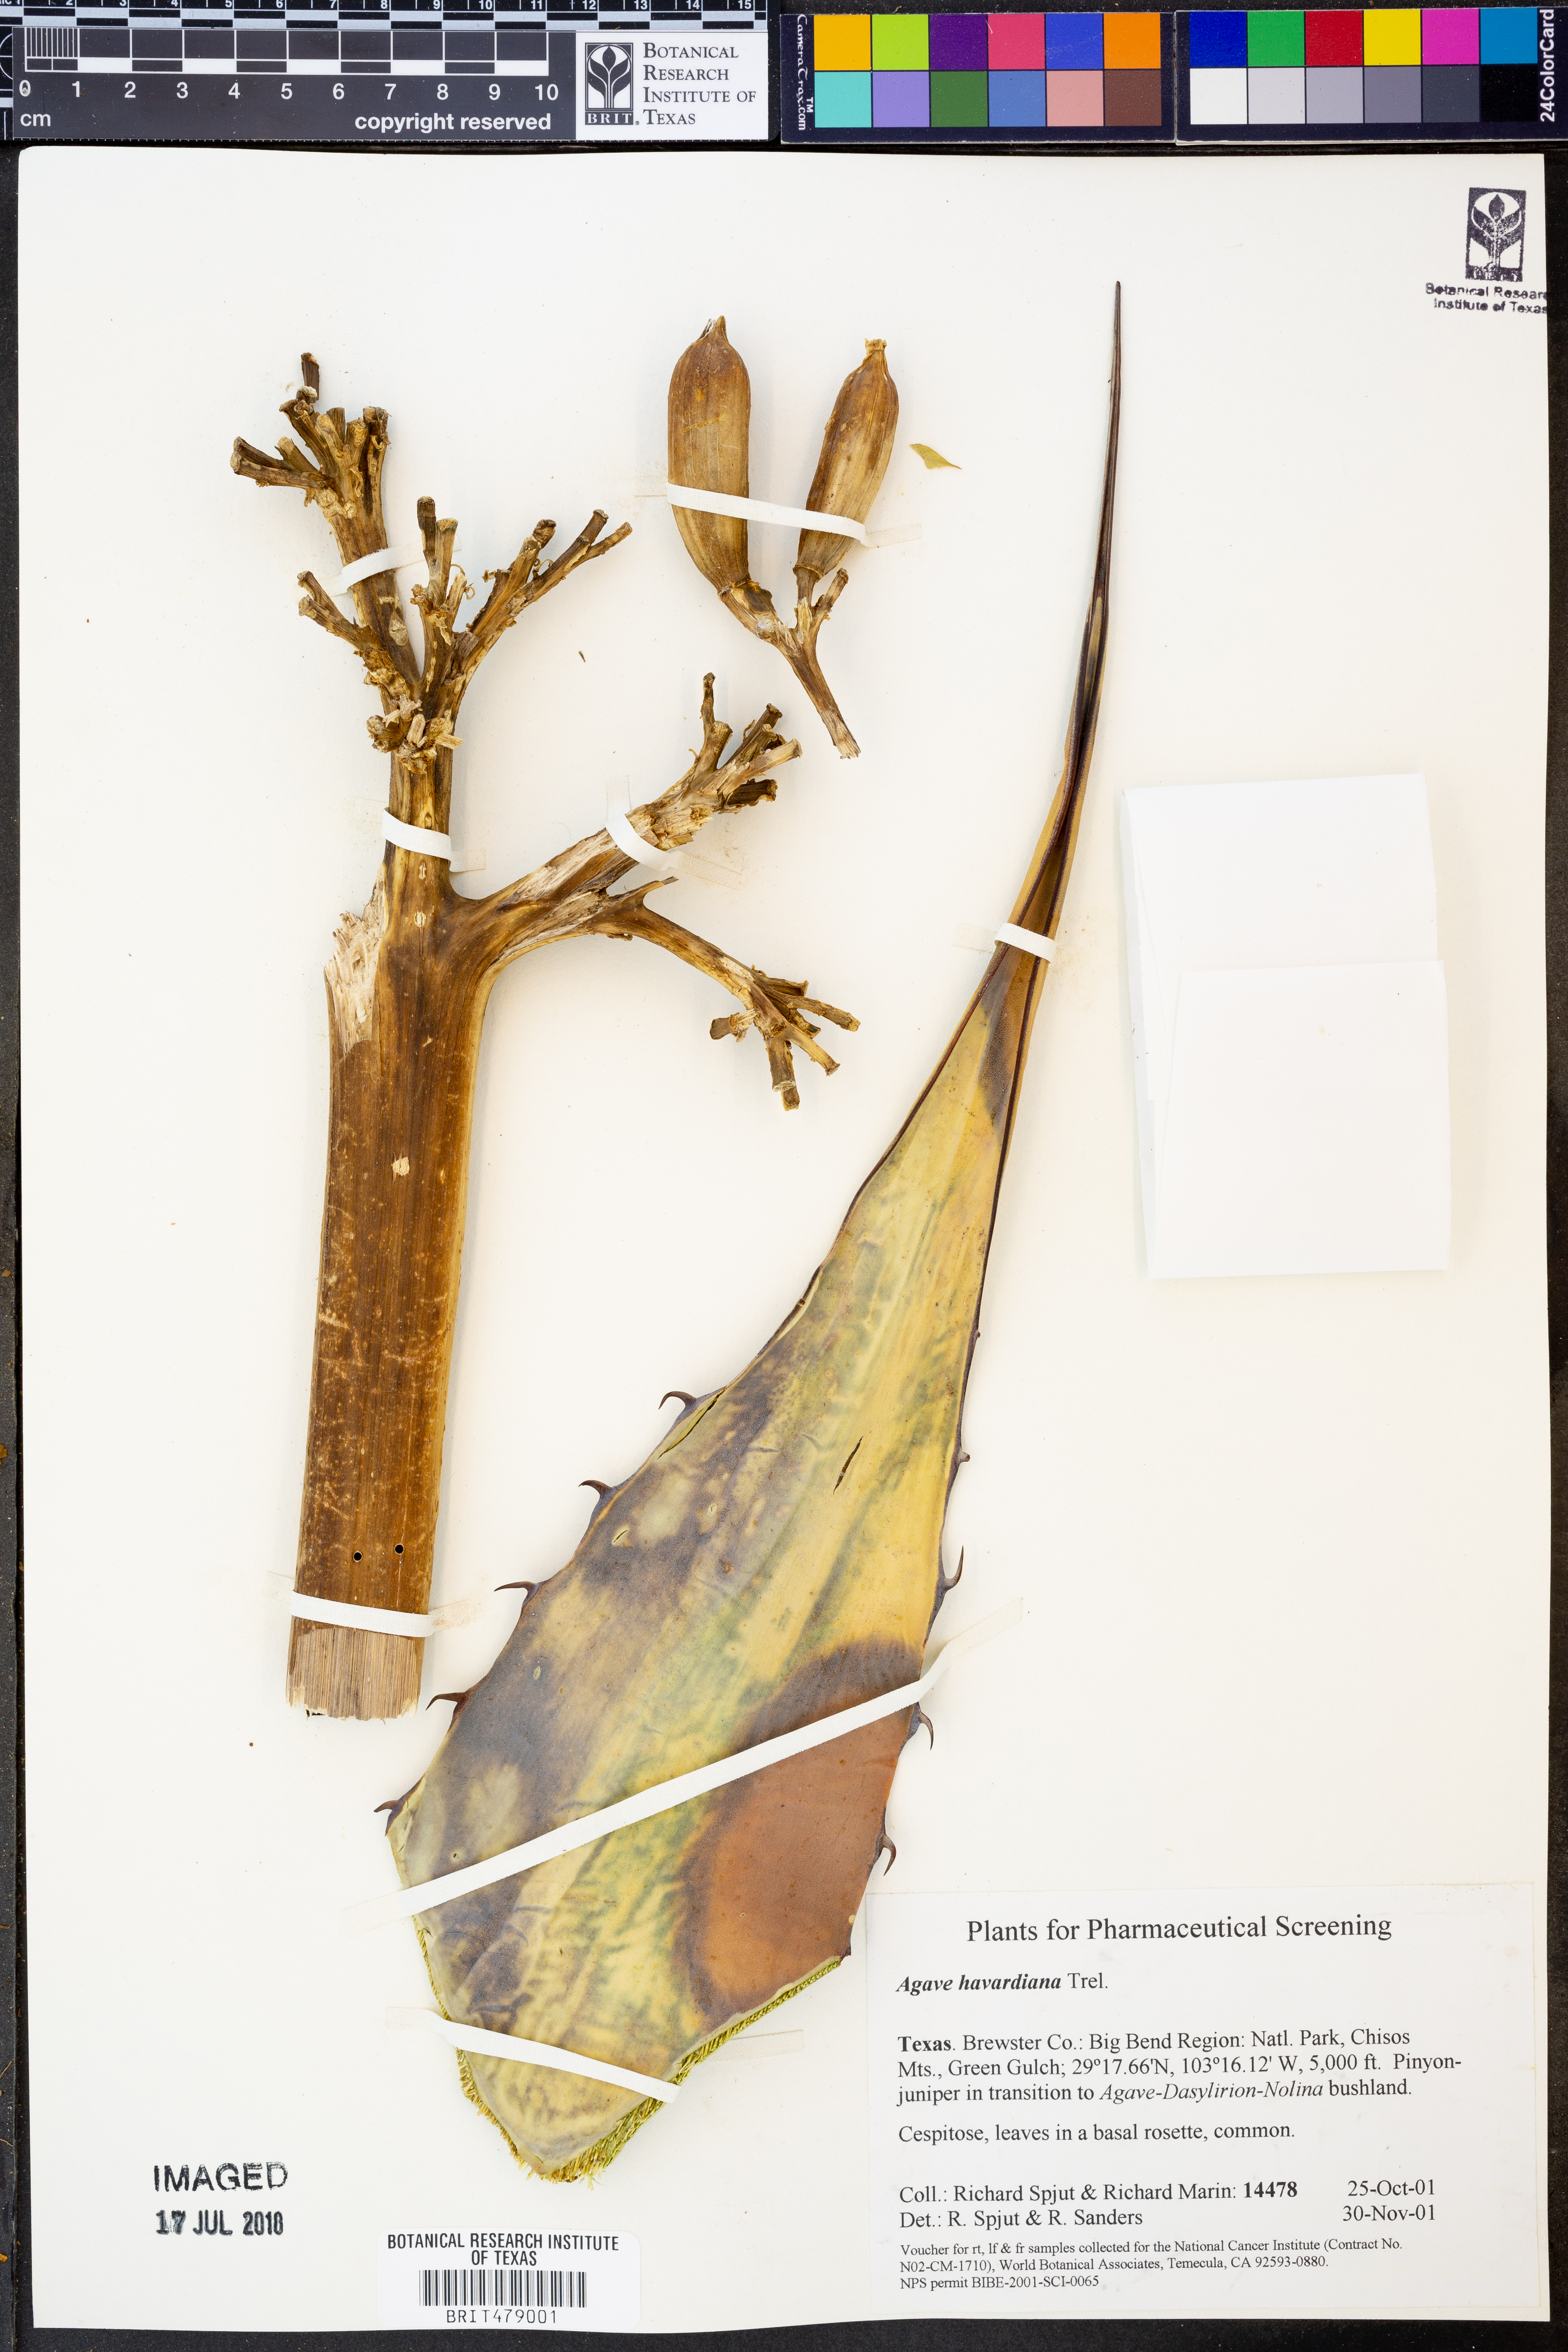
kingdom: Plantae
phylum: Tracheophyta
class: Liliopsida
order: Asparagales
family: Asparagaceae
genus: Agave
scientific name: Agave havardiana
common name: Havard agave
